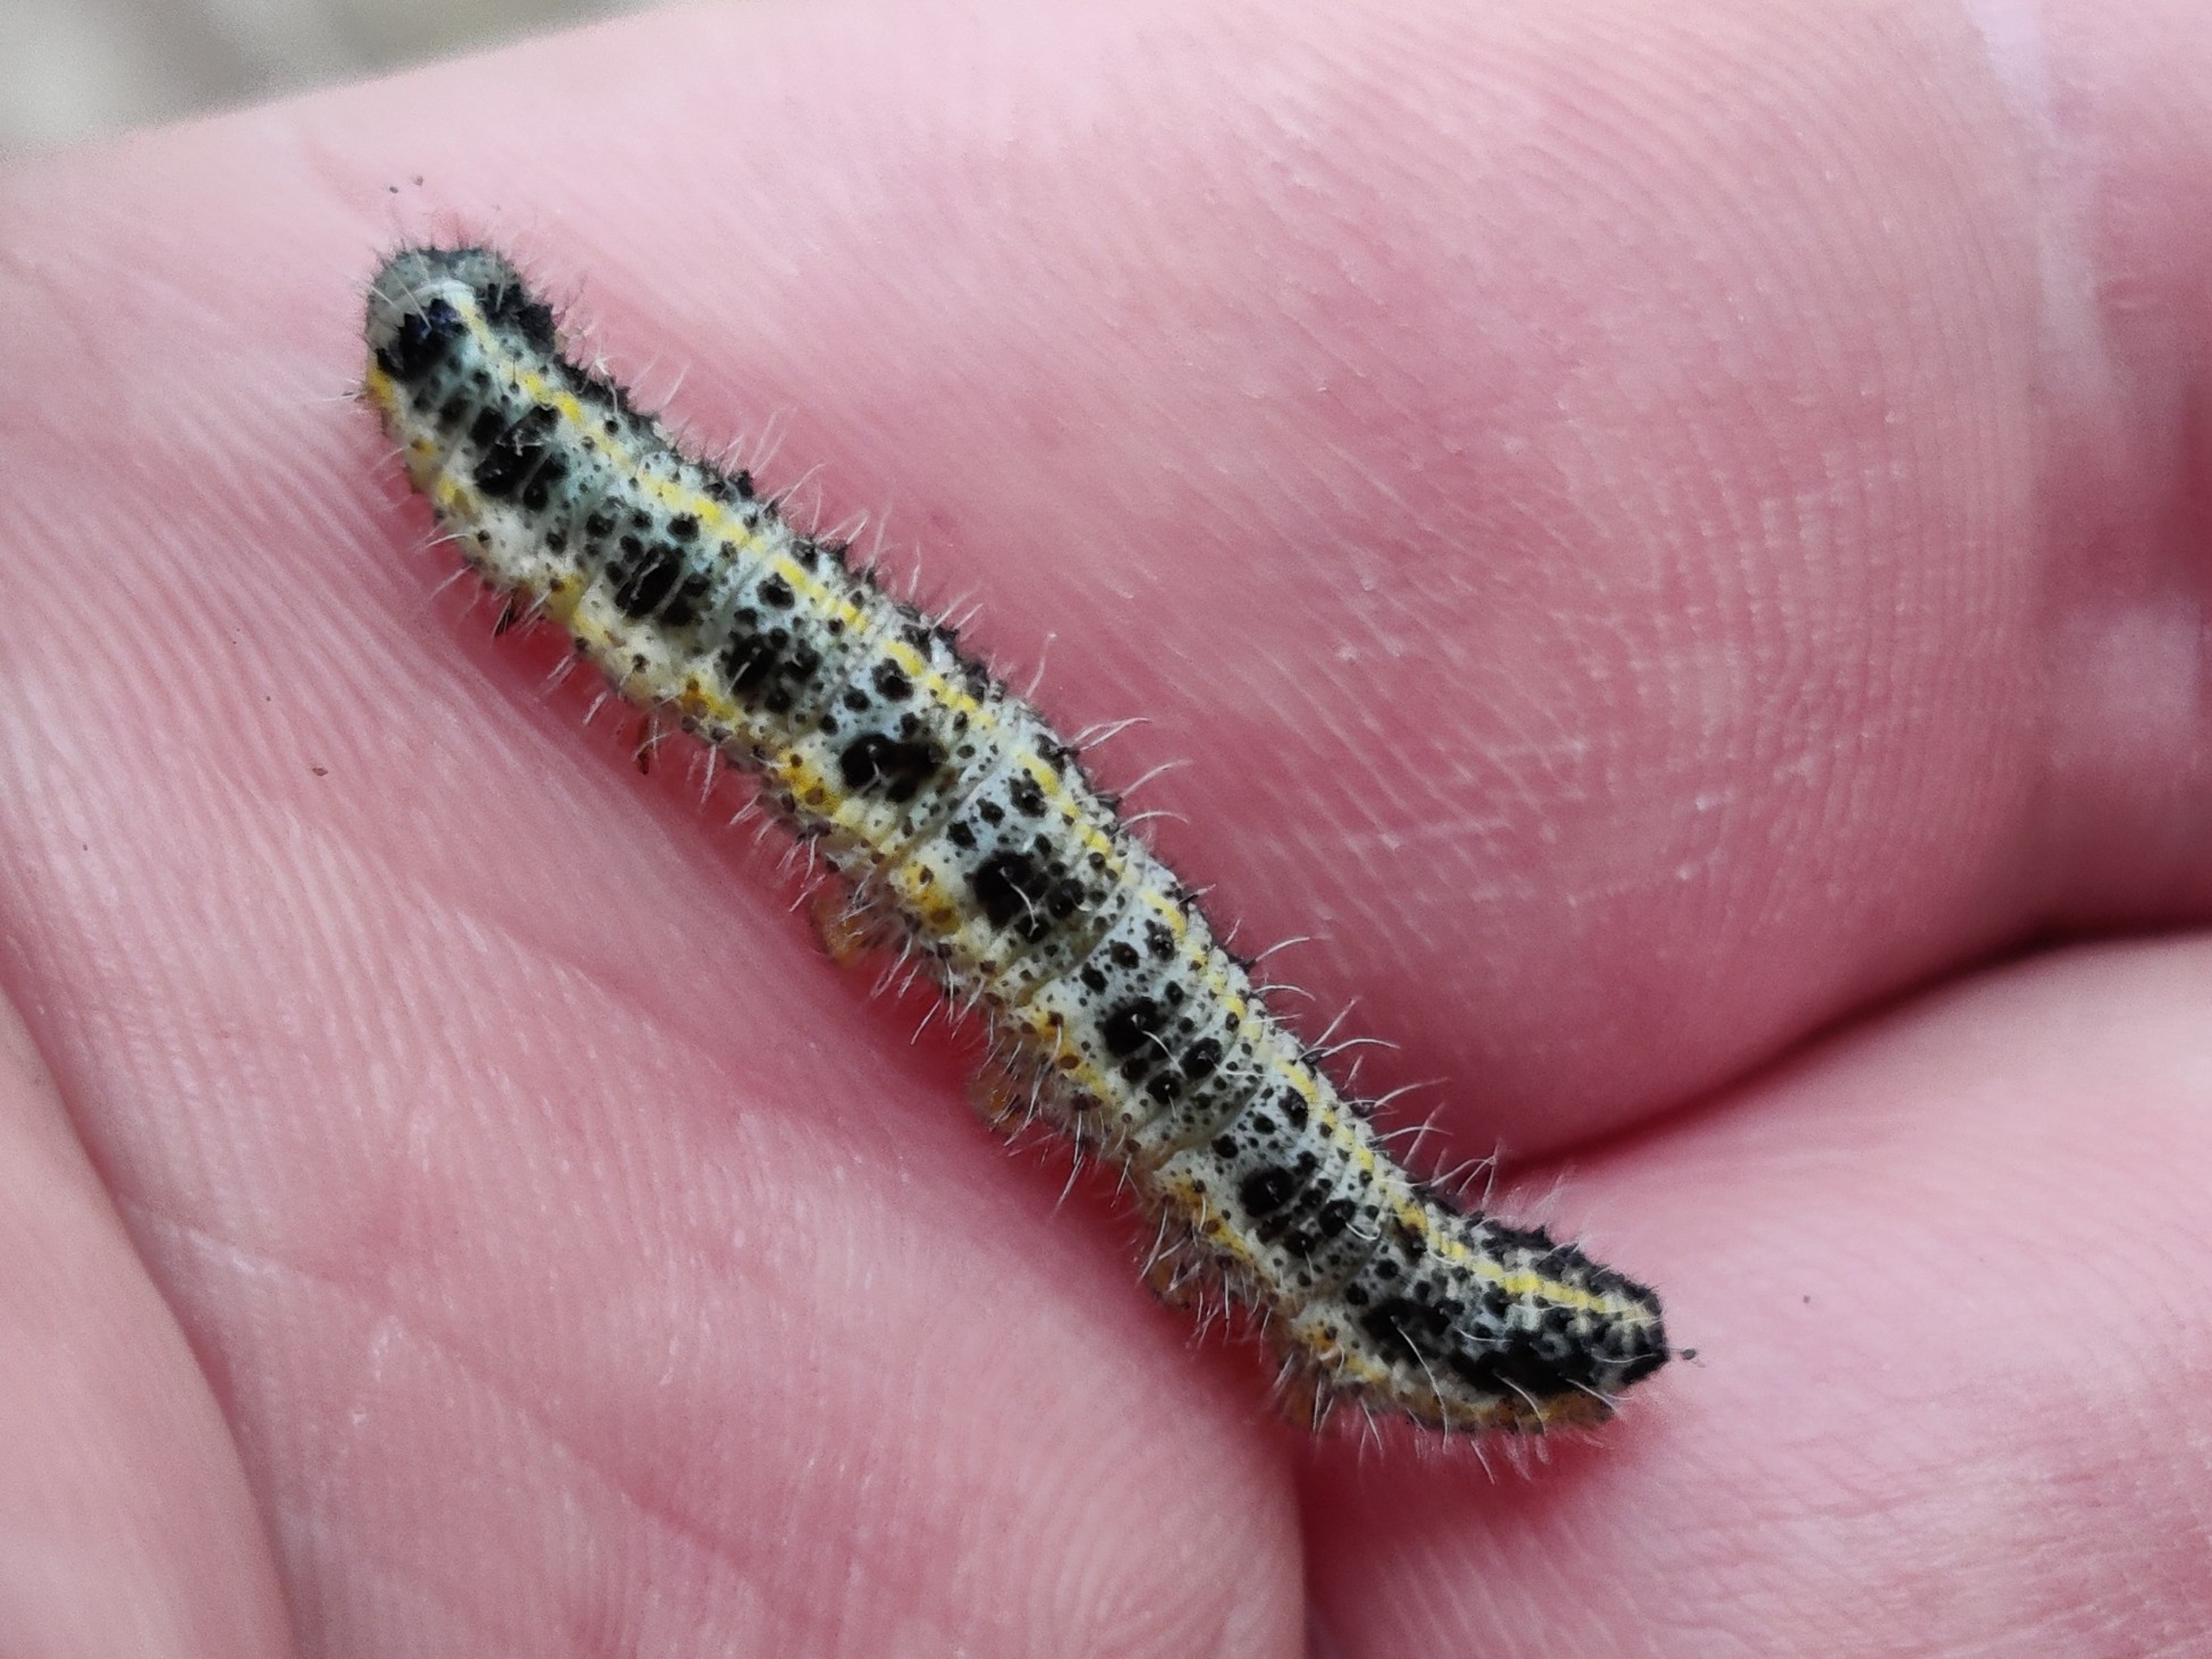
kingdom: Animalia
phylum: Arthropoda
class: Insecta
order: Lepidoptera
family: Pieridae
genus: Pieris
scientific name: Pieris brassicae
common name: Stor kålsommerfugl
